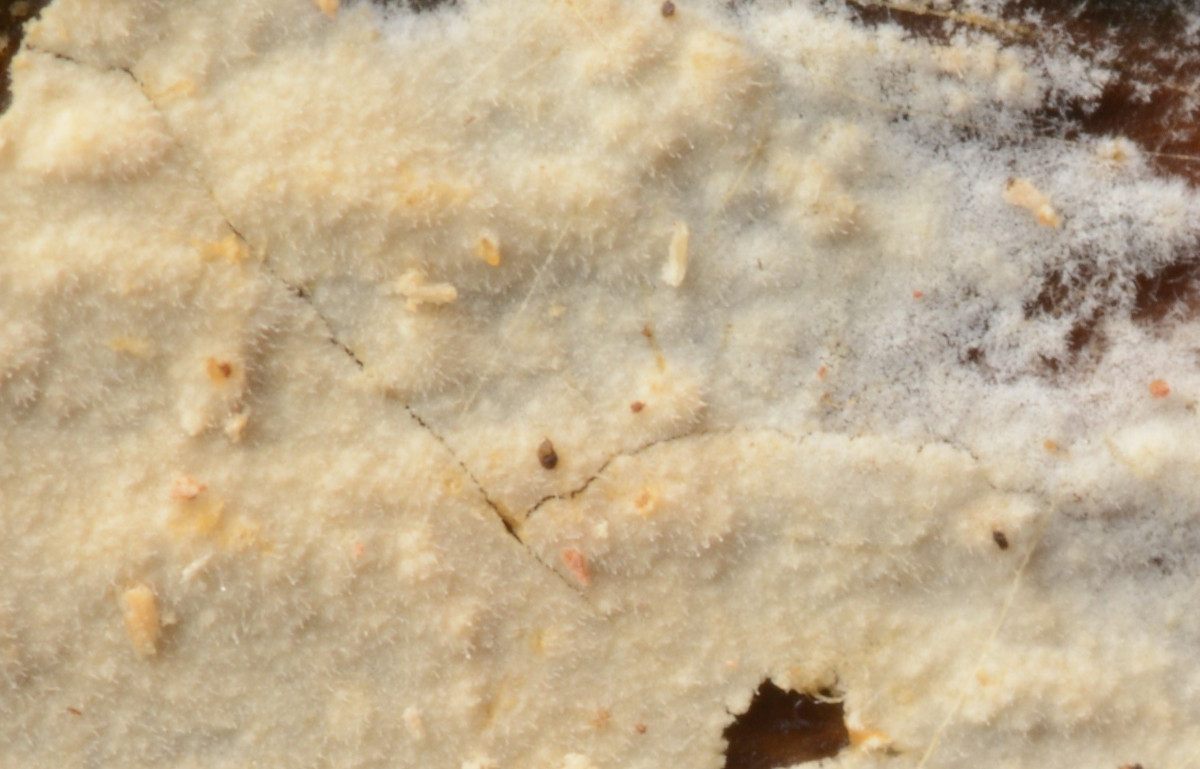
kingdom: Fungi
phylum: Basidiomycota
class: Agaricomycetes
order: Polyporales
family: Hyphodermataceae
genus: Hyphoderma
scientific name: Hyphoderma setigerum
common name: håret kalkskind
